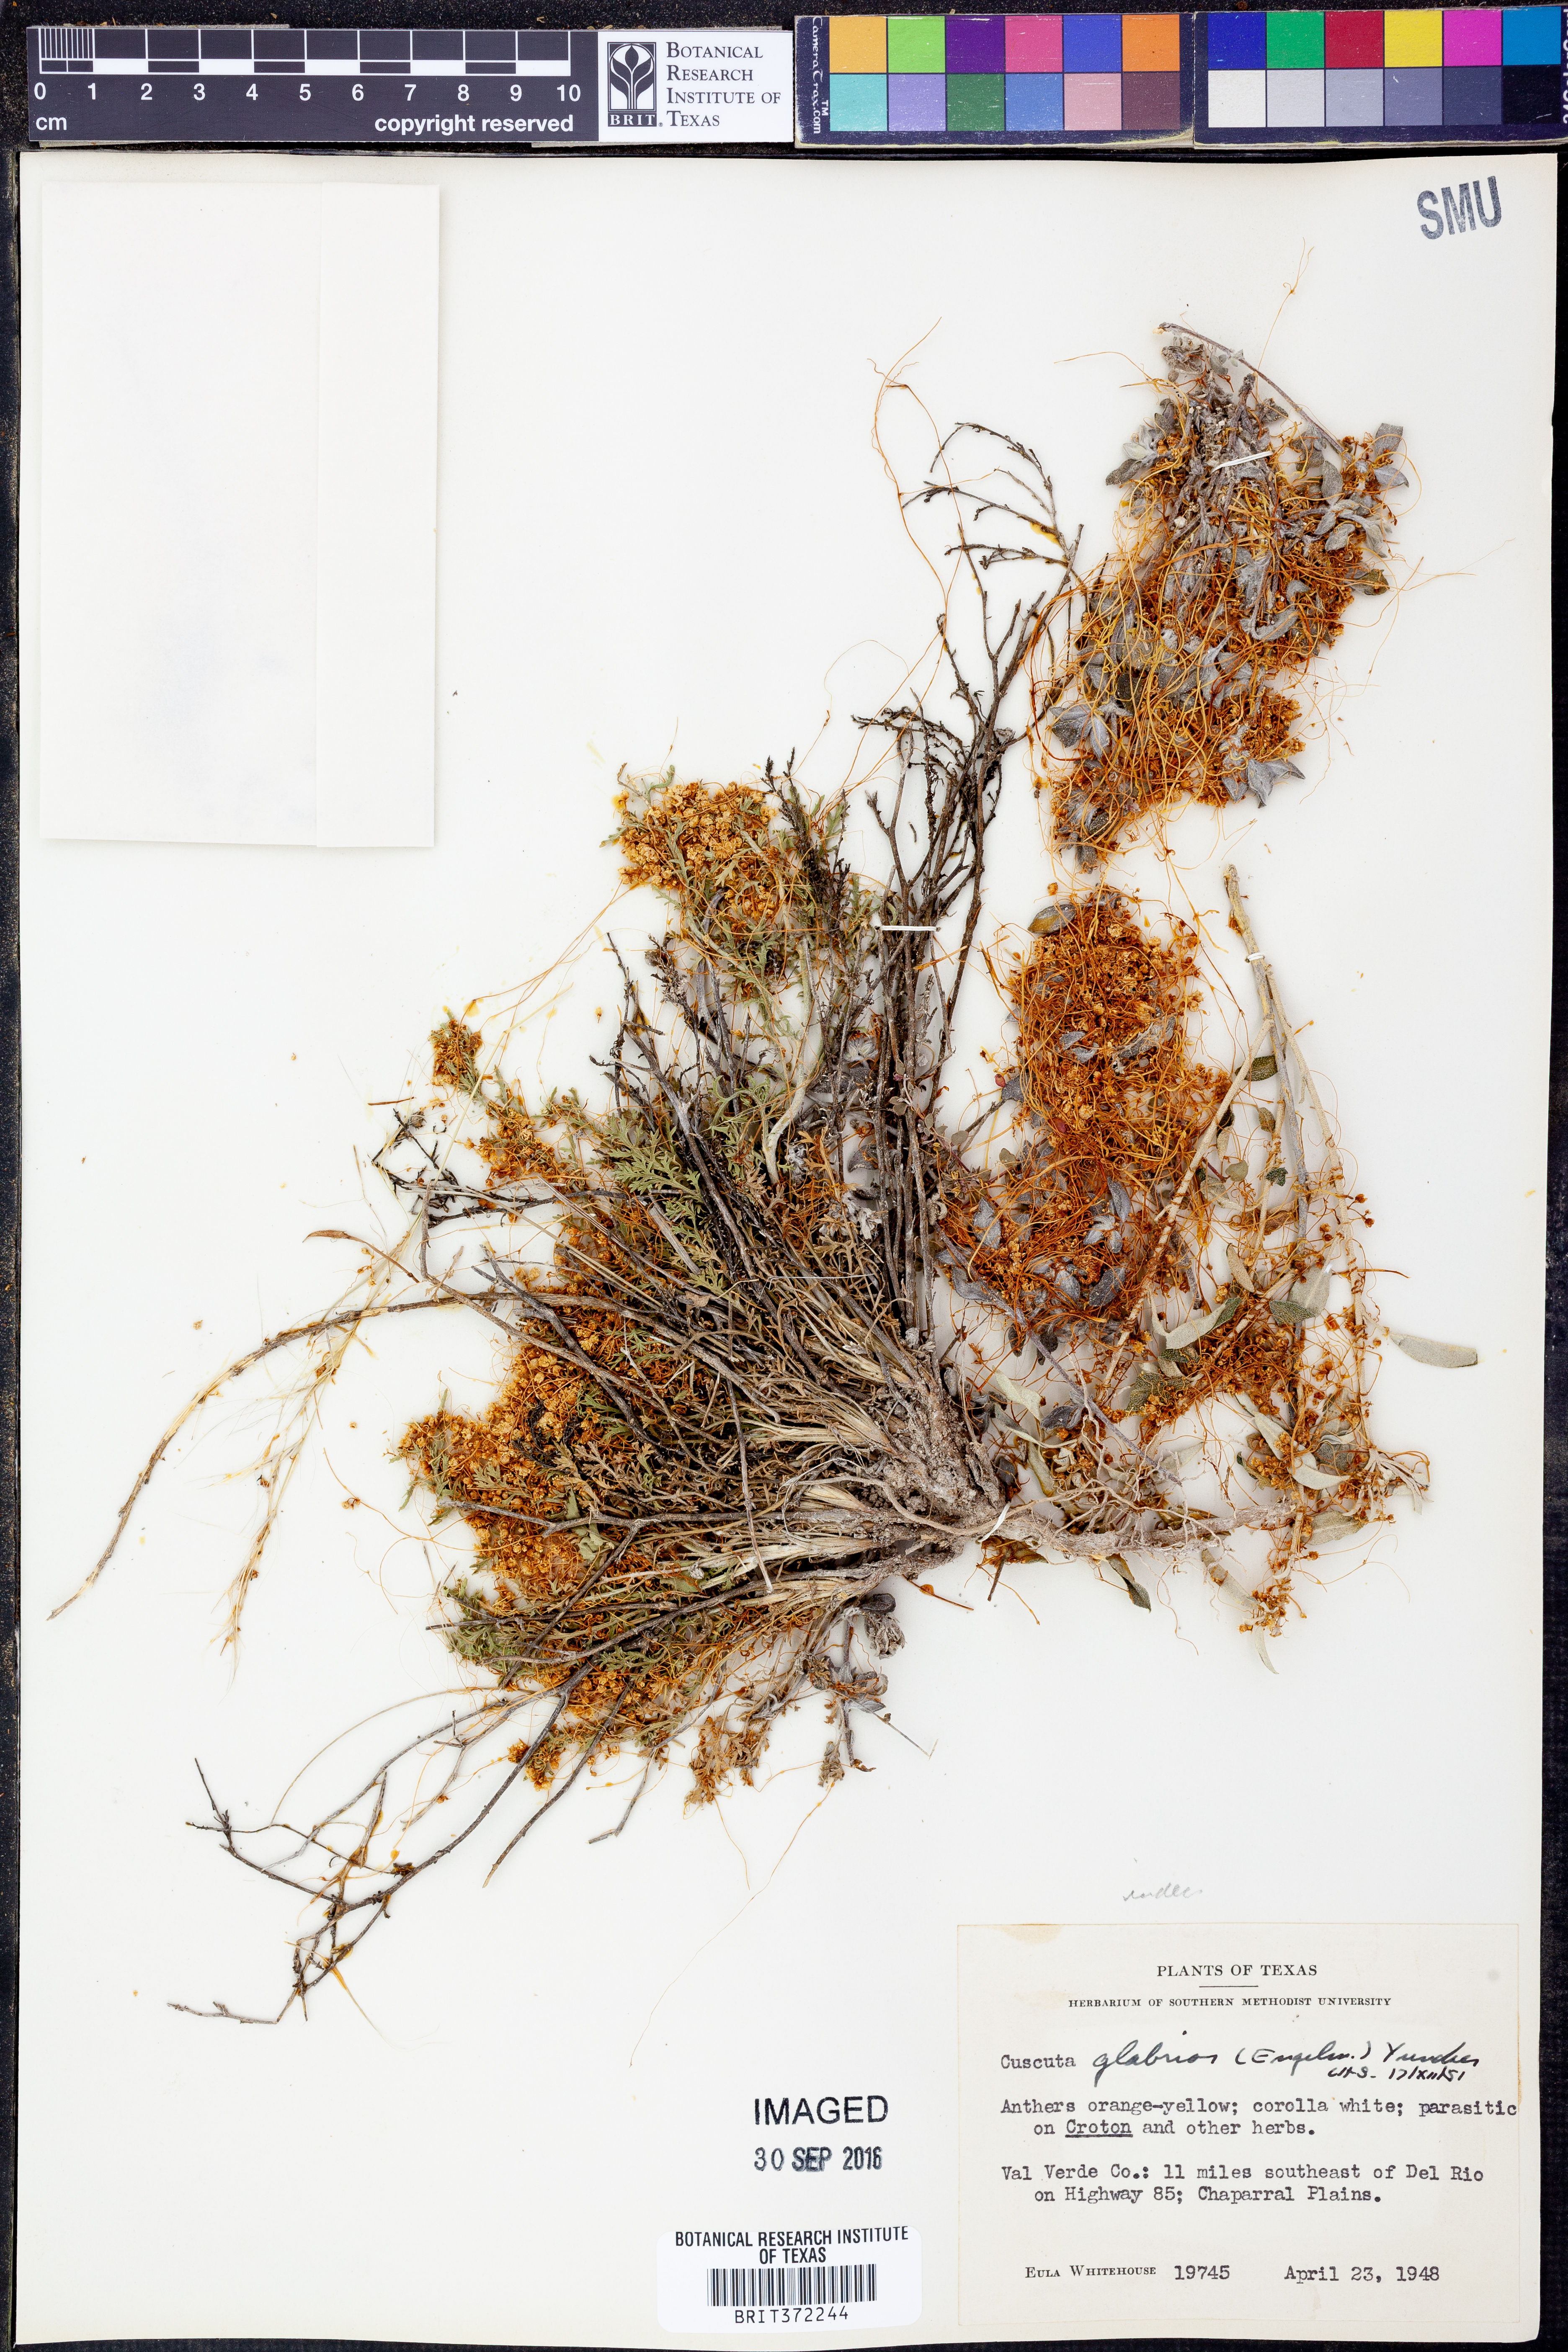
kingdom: Plantae
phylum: Tracheophyta
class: Magnoliopsida
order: Solanales
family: Convolvulaceae
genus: Cuscuta
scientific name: Cuscuta glabrior
